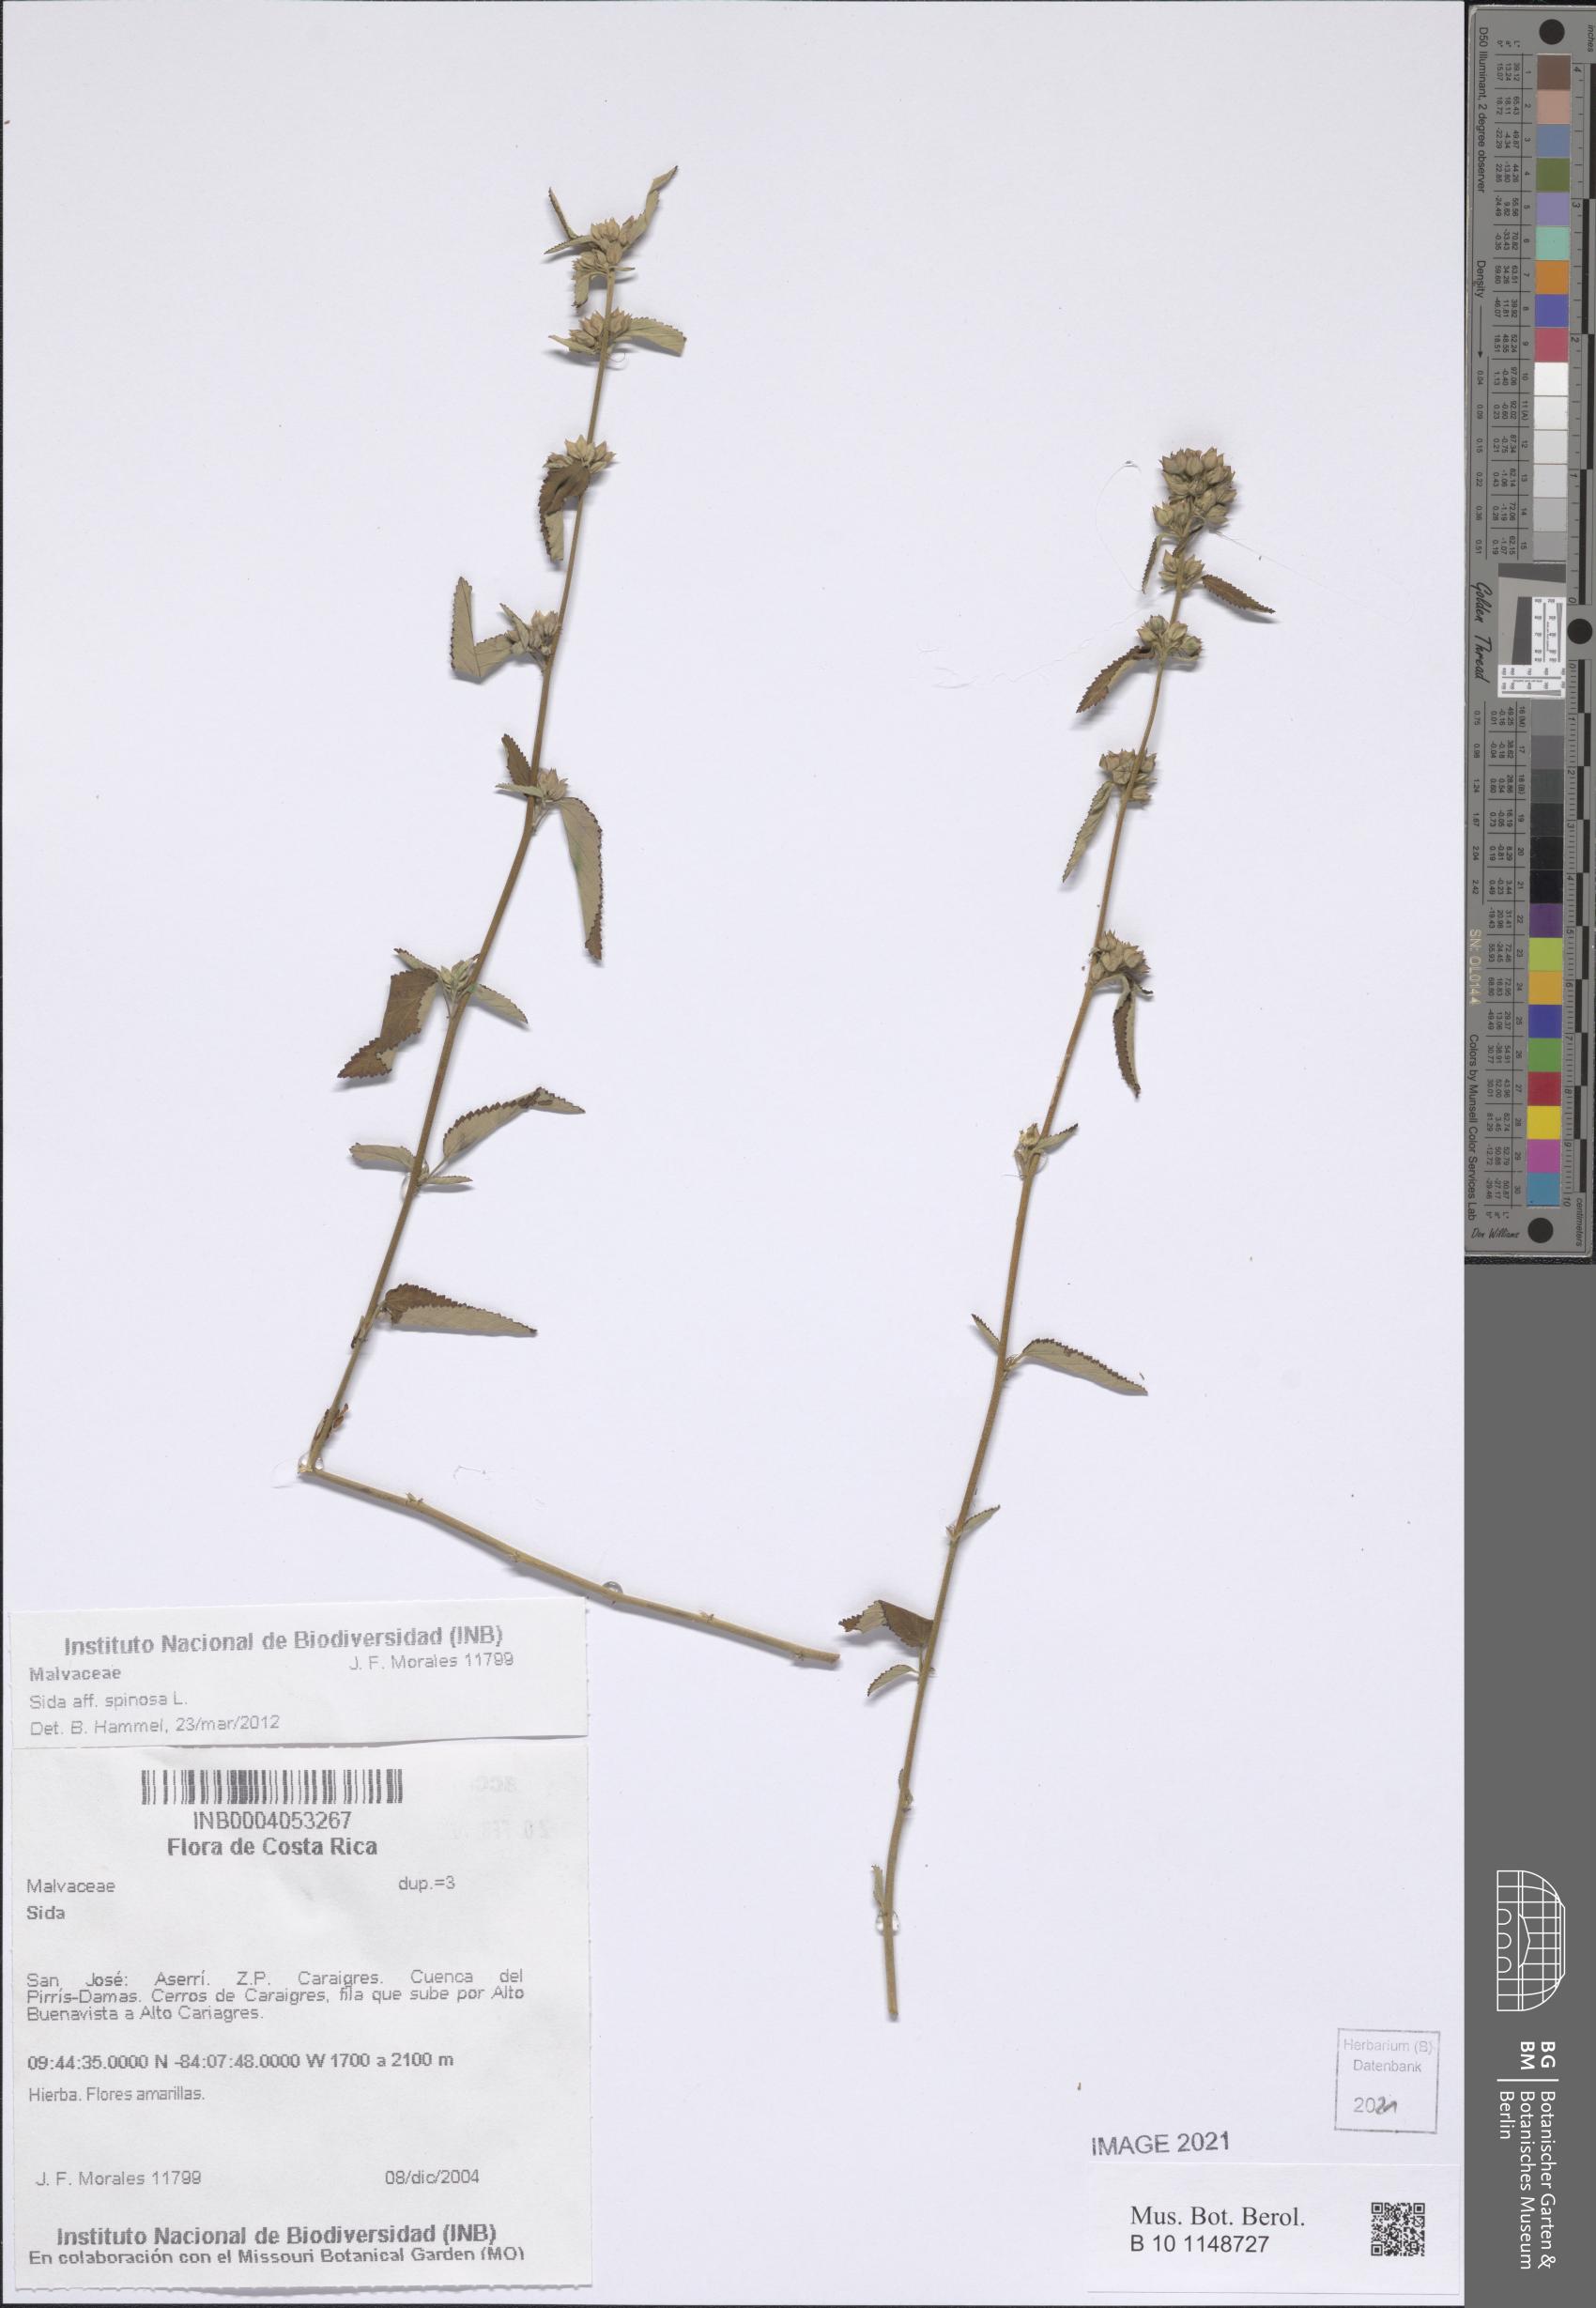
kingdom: Plantae
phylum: Tracheophyta
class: Magnoliopsida
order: Malvales
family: Malvaceae
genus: Sida
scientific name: Sida spinosa
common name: Prickly fanpetals
